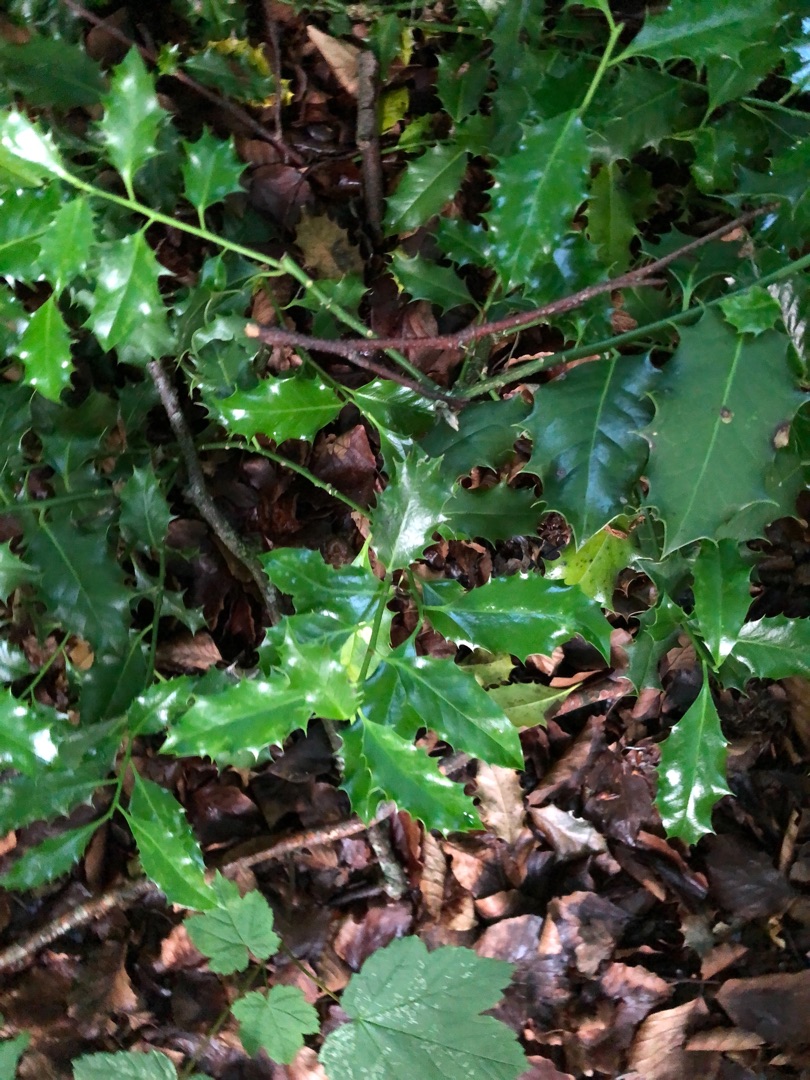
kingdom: Plantae
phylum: Tracheophyta
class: Magnoliopsida
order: Aquifoliales
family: Aquifoliaceae
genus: Ilex
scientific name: Ilex aquifolium
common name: Kristtorn
